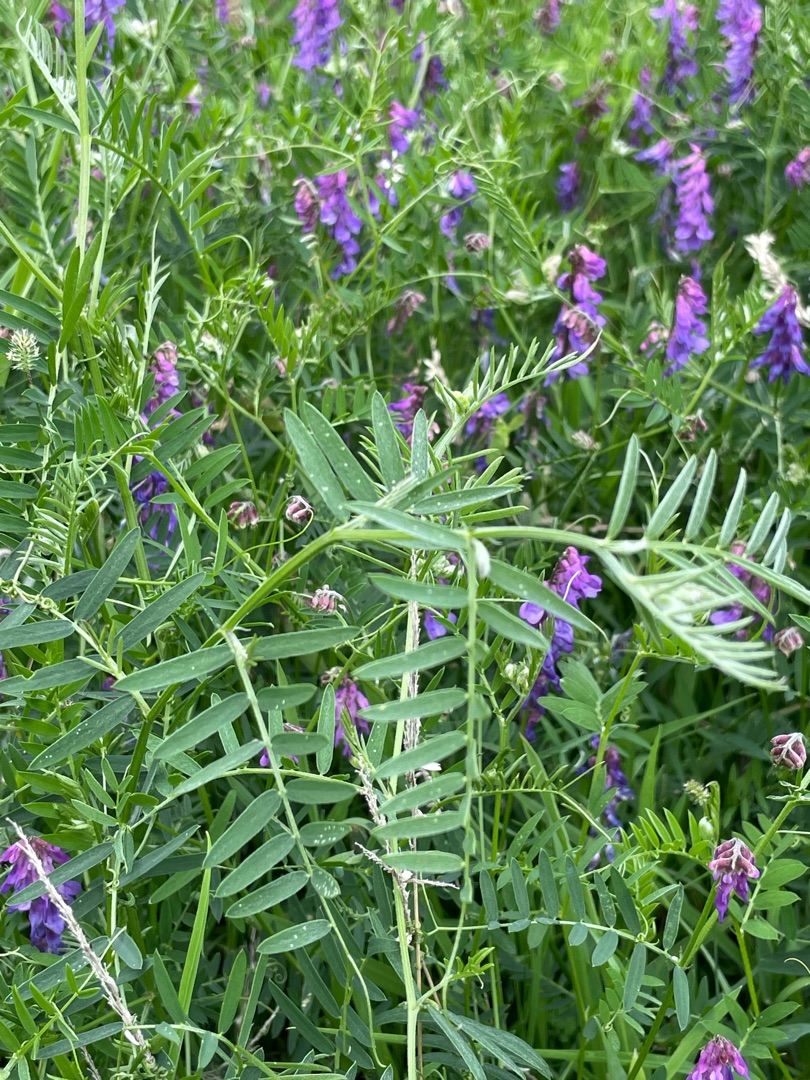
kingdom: Plantae
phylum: Tracheophyta
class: Magnoliopsida
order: Fabales
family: Fabaceae
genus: Vicia
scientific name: Vicia cracca
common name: Muse-vikke
